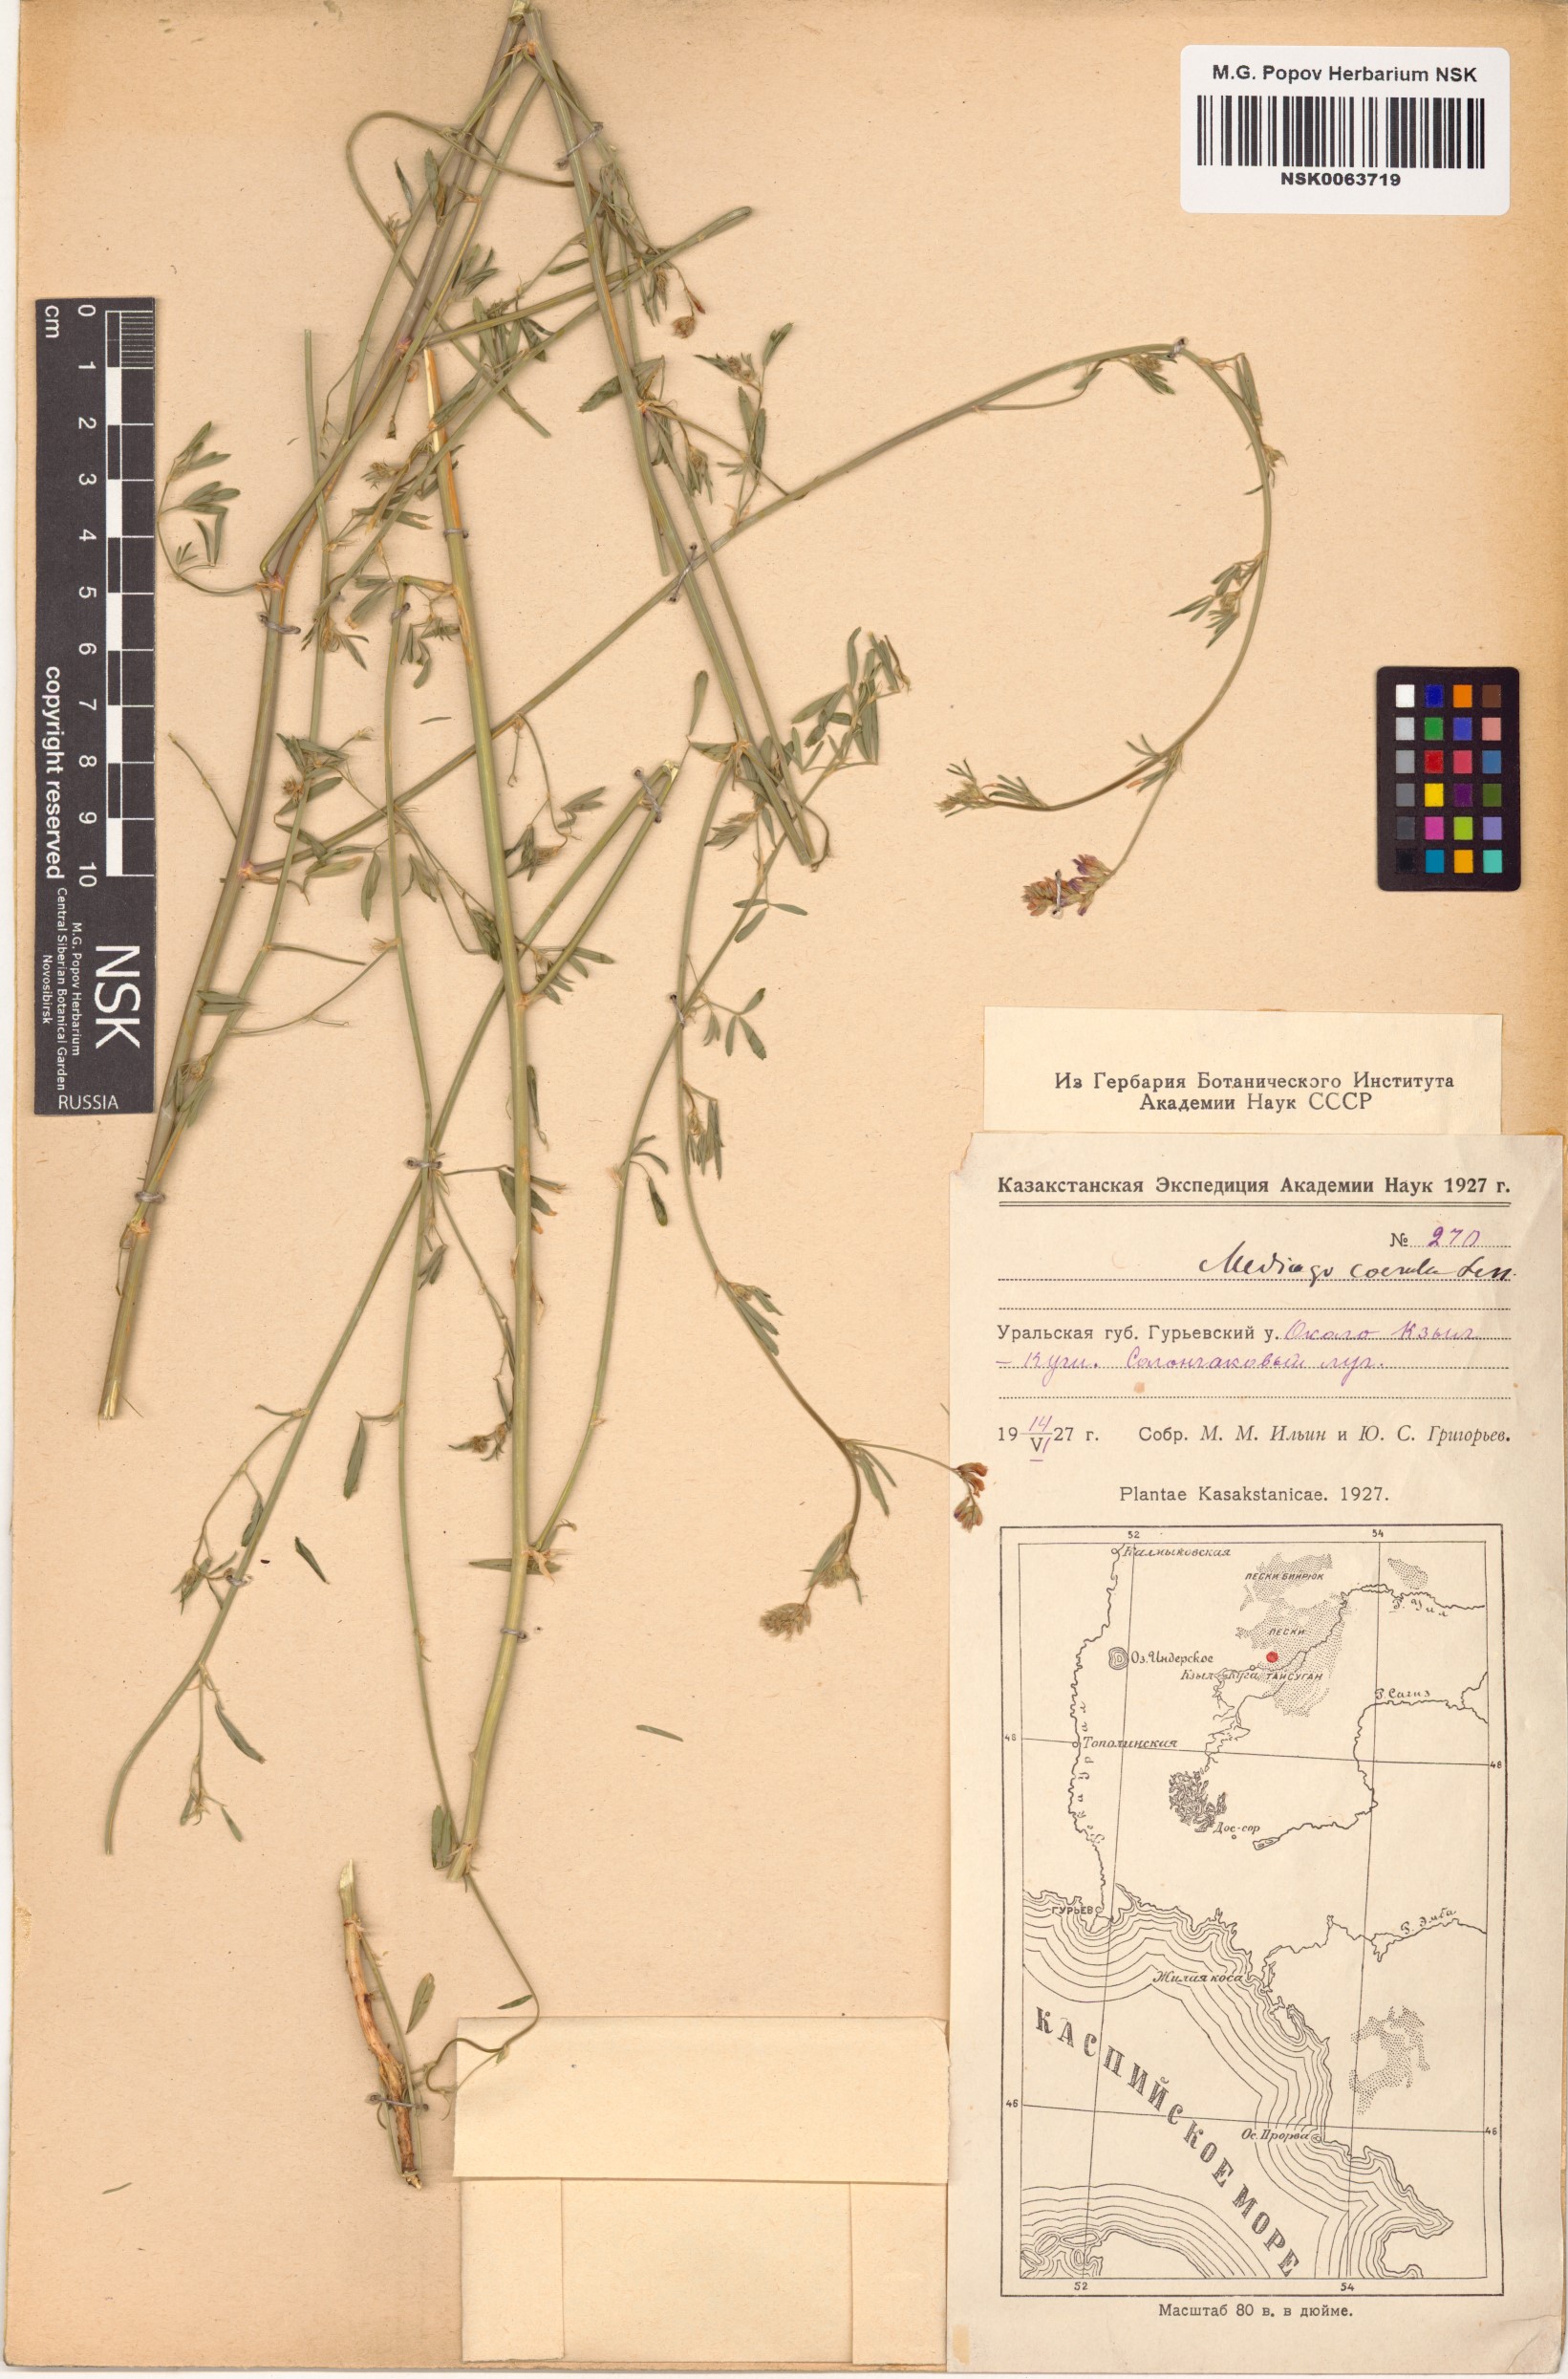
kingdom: Plantae
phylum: Tracheophyta
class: Magnoliopsida
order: Fabales
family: Fabaceae
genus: Medicago
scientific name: Medicago sativa
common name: Alfalfa
